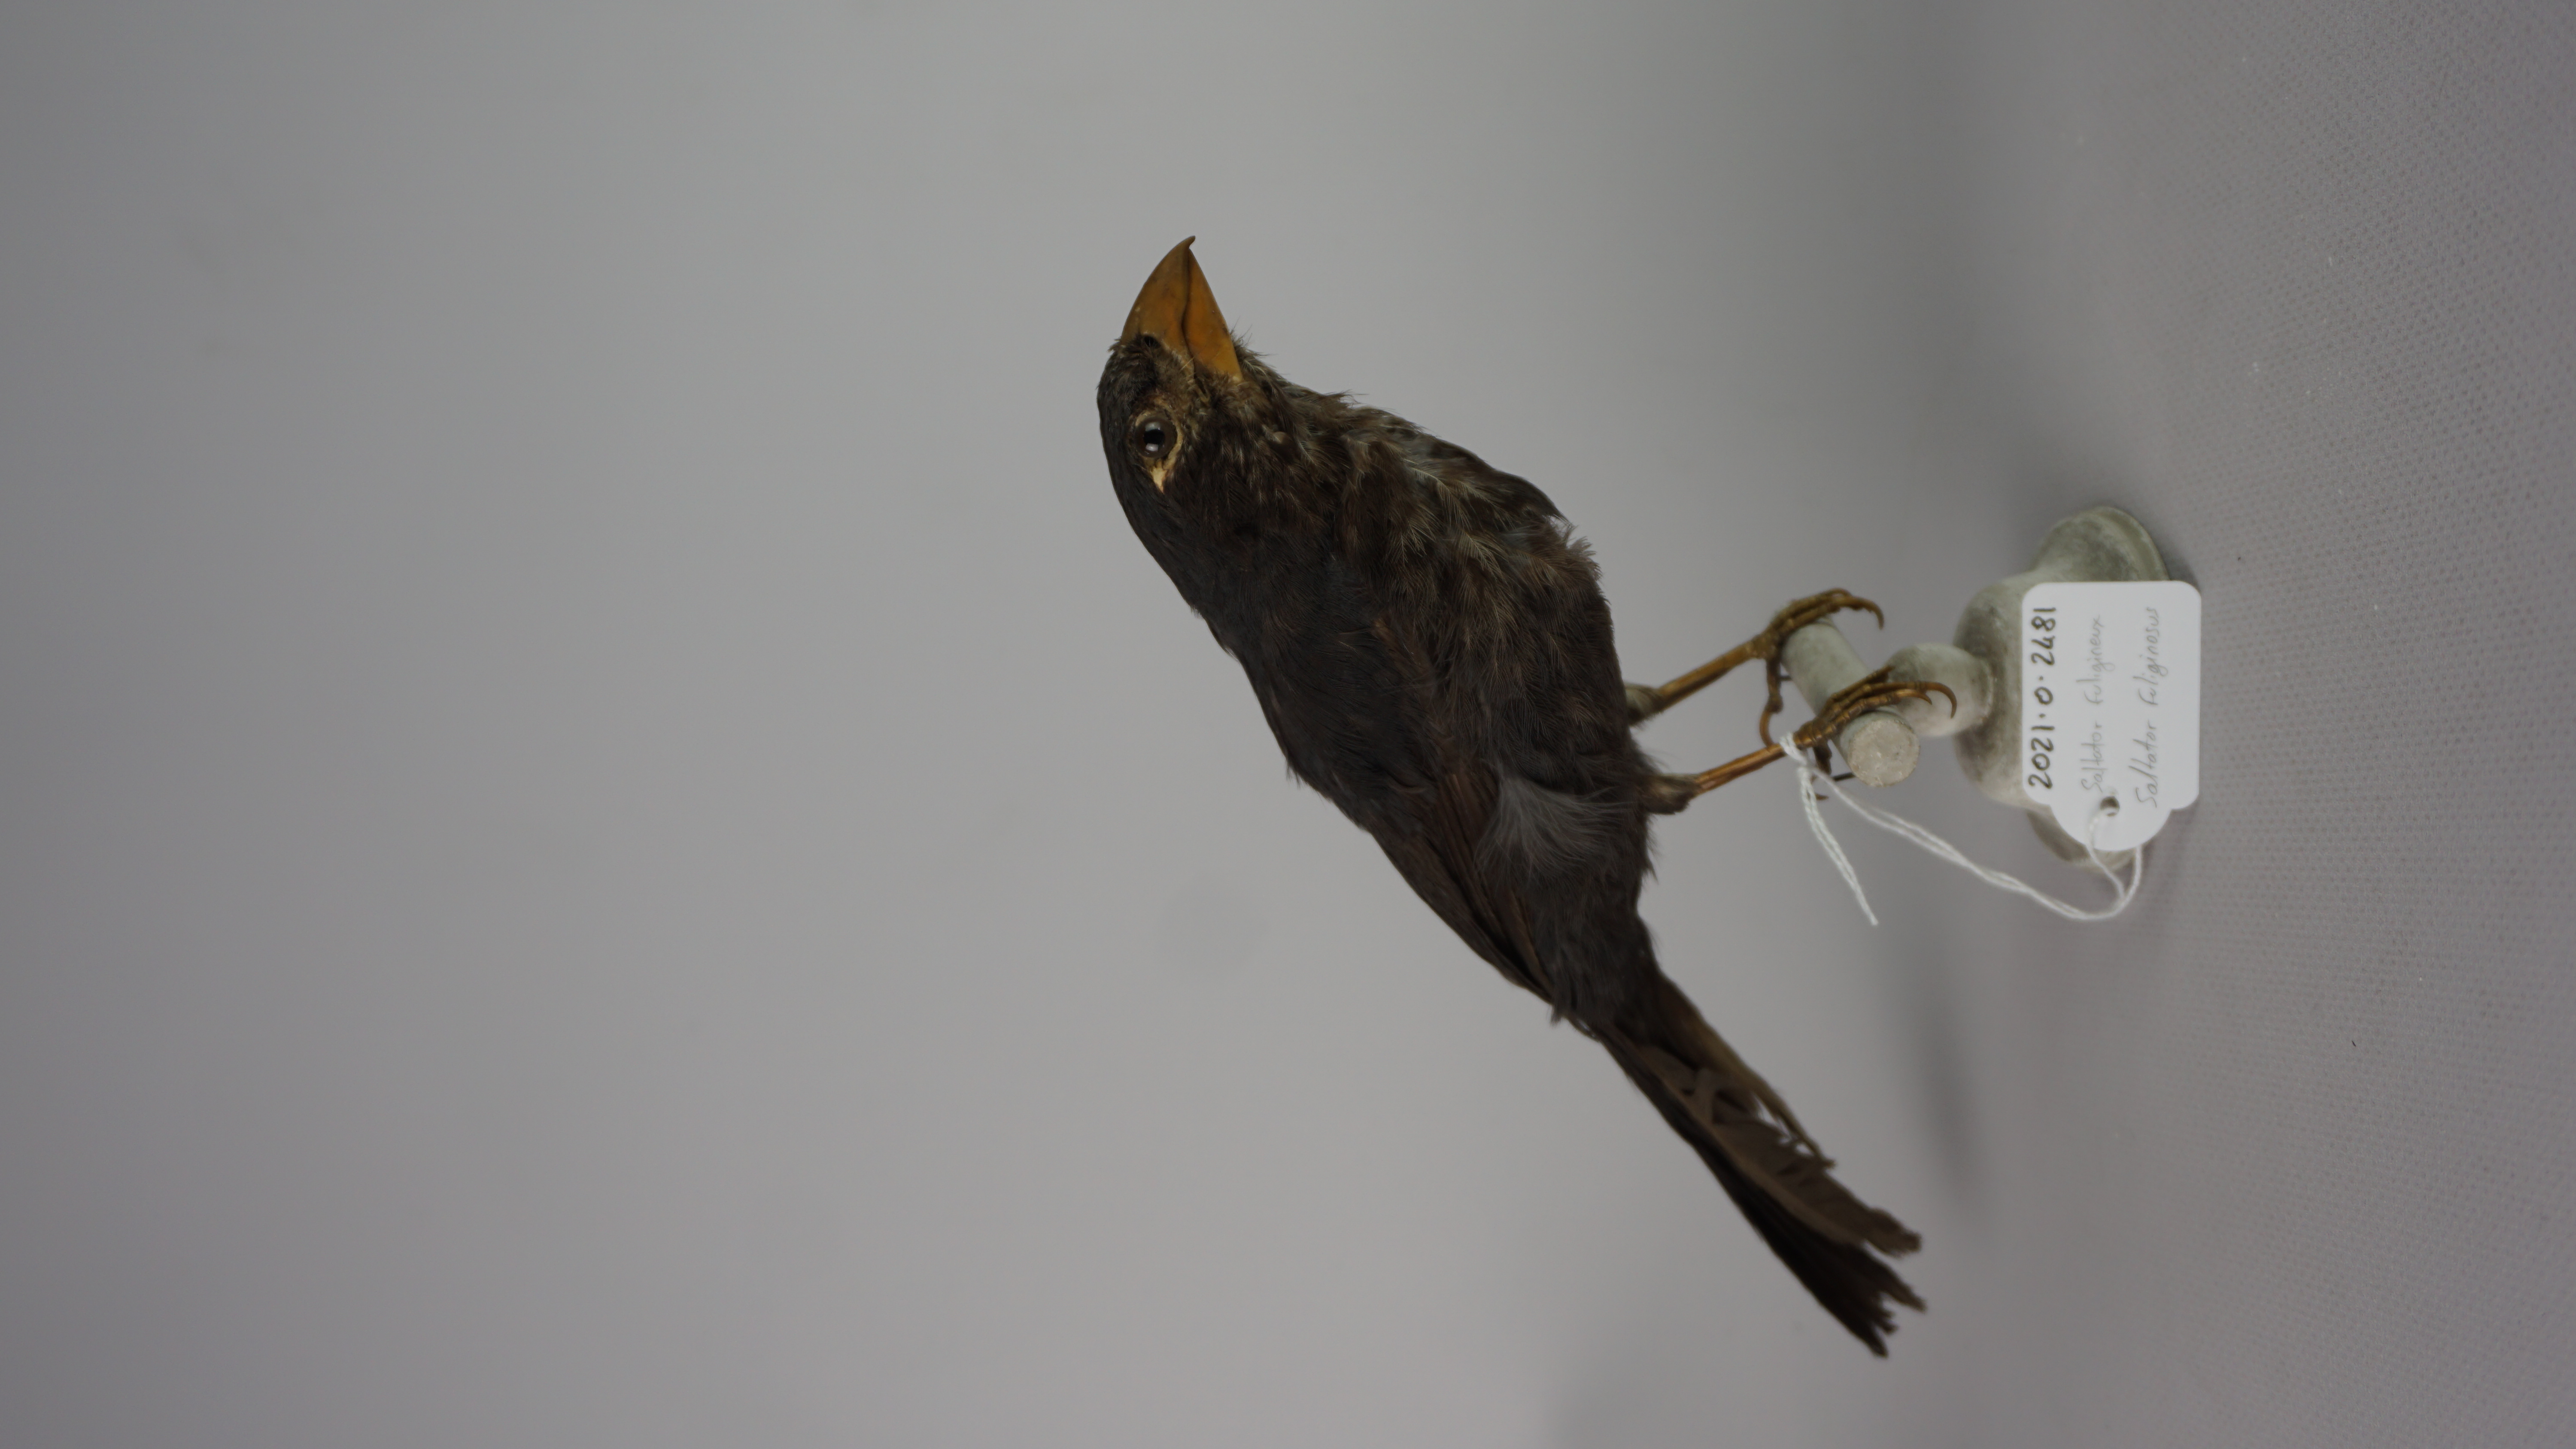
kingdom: Animalia
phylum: Chordata
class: Aves
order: Passeriformes
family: Thraupidae
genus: Saltator
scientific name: Saltator fuliginosus
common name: Black-throated grosbeak
